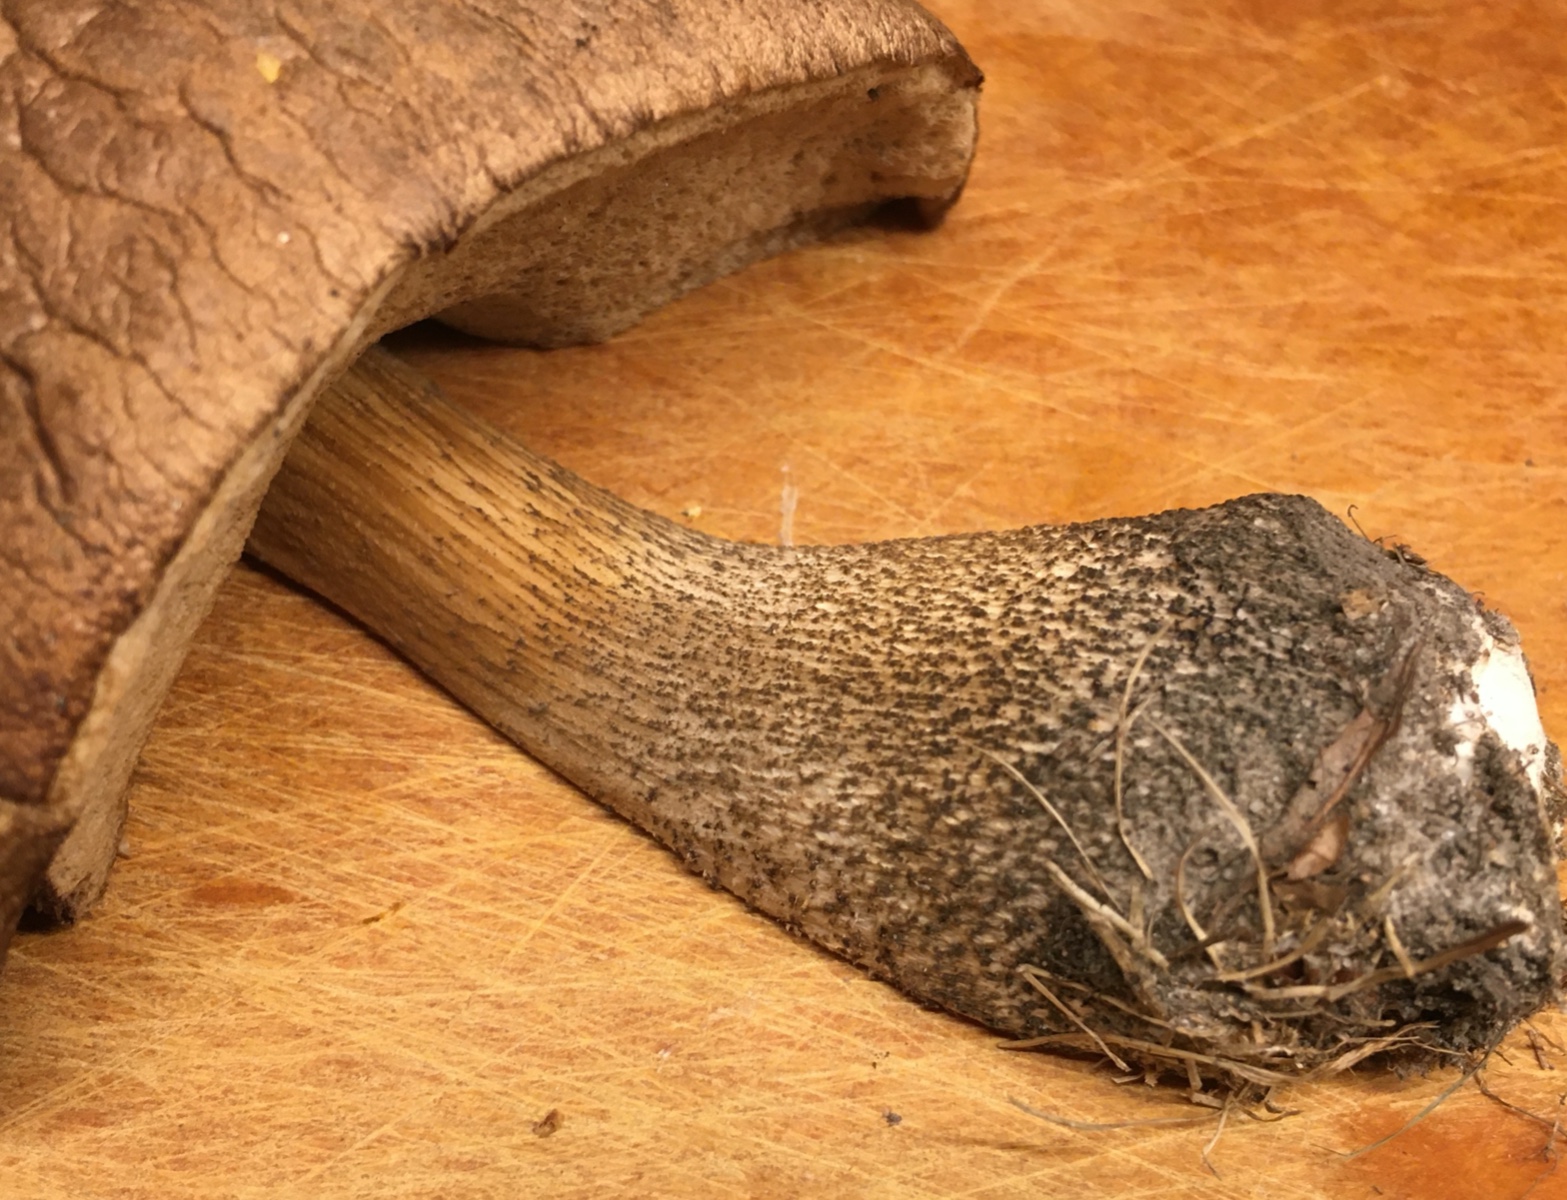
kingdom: Fungi
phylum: Basidiomycota
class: Agaricomycetes
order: Boletales
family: Boletaceae
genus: Leccinum
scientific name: Leccinum scabrum
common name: brun skælrørhat
